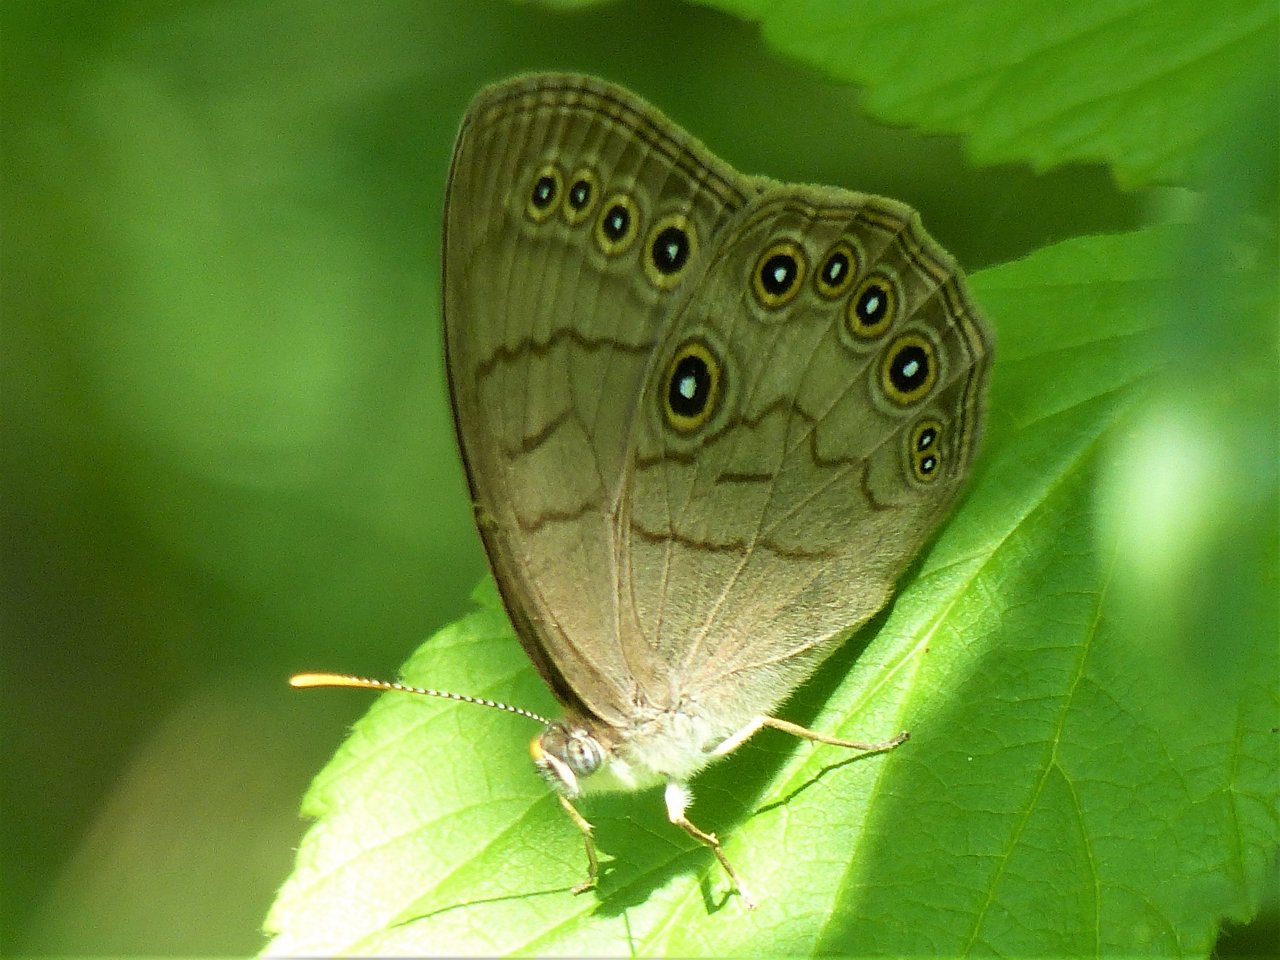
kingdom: Animalia
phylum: Arthropoda
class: Insecta
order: Lepidoptera
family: Nymphalidae
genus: Lethe
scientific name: Lethe eurydice
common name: Appalachian Eyed Brown
